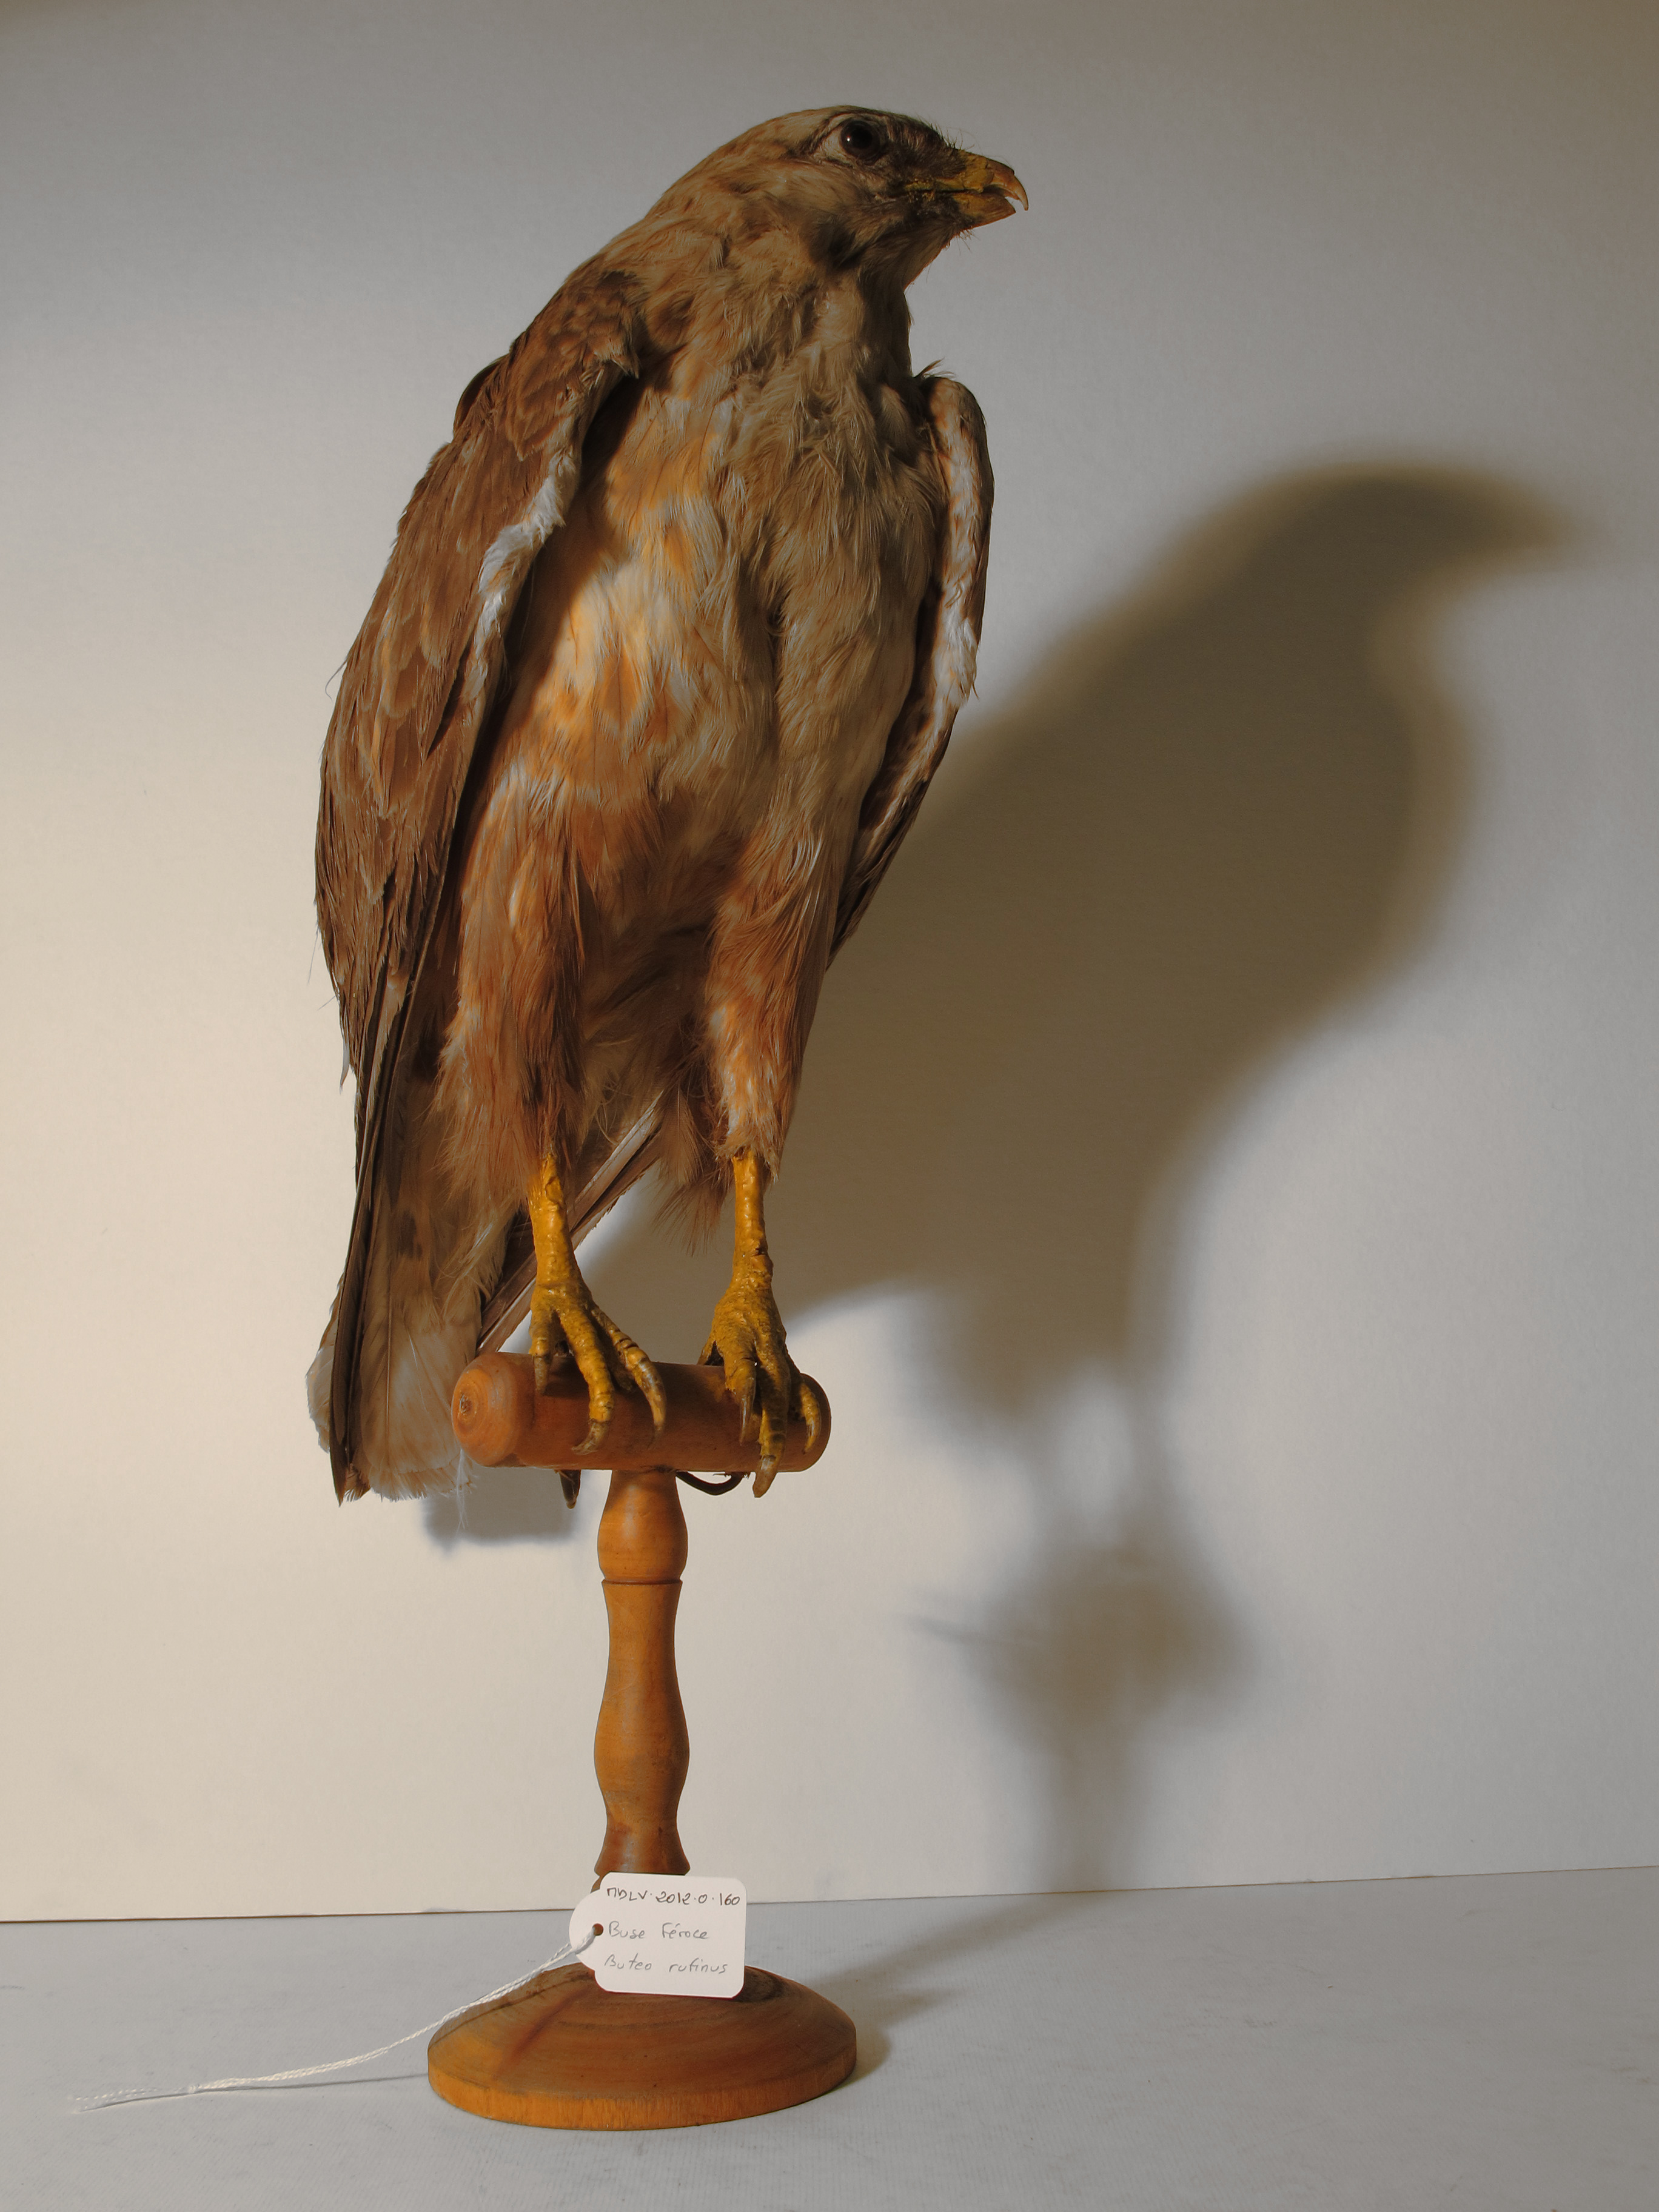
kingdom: Animalia
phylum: Chordata
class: Aves
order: Accipitriformes
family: Accipitridae
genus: Buteo
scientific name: Buteo rufinus
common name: Long-legged Buzzard
